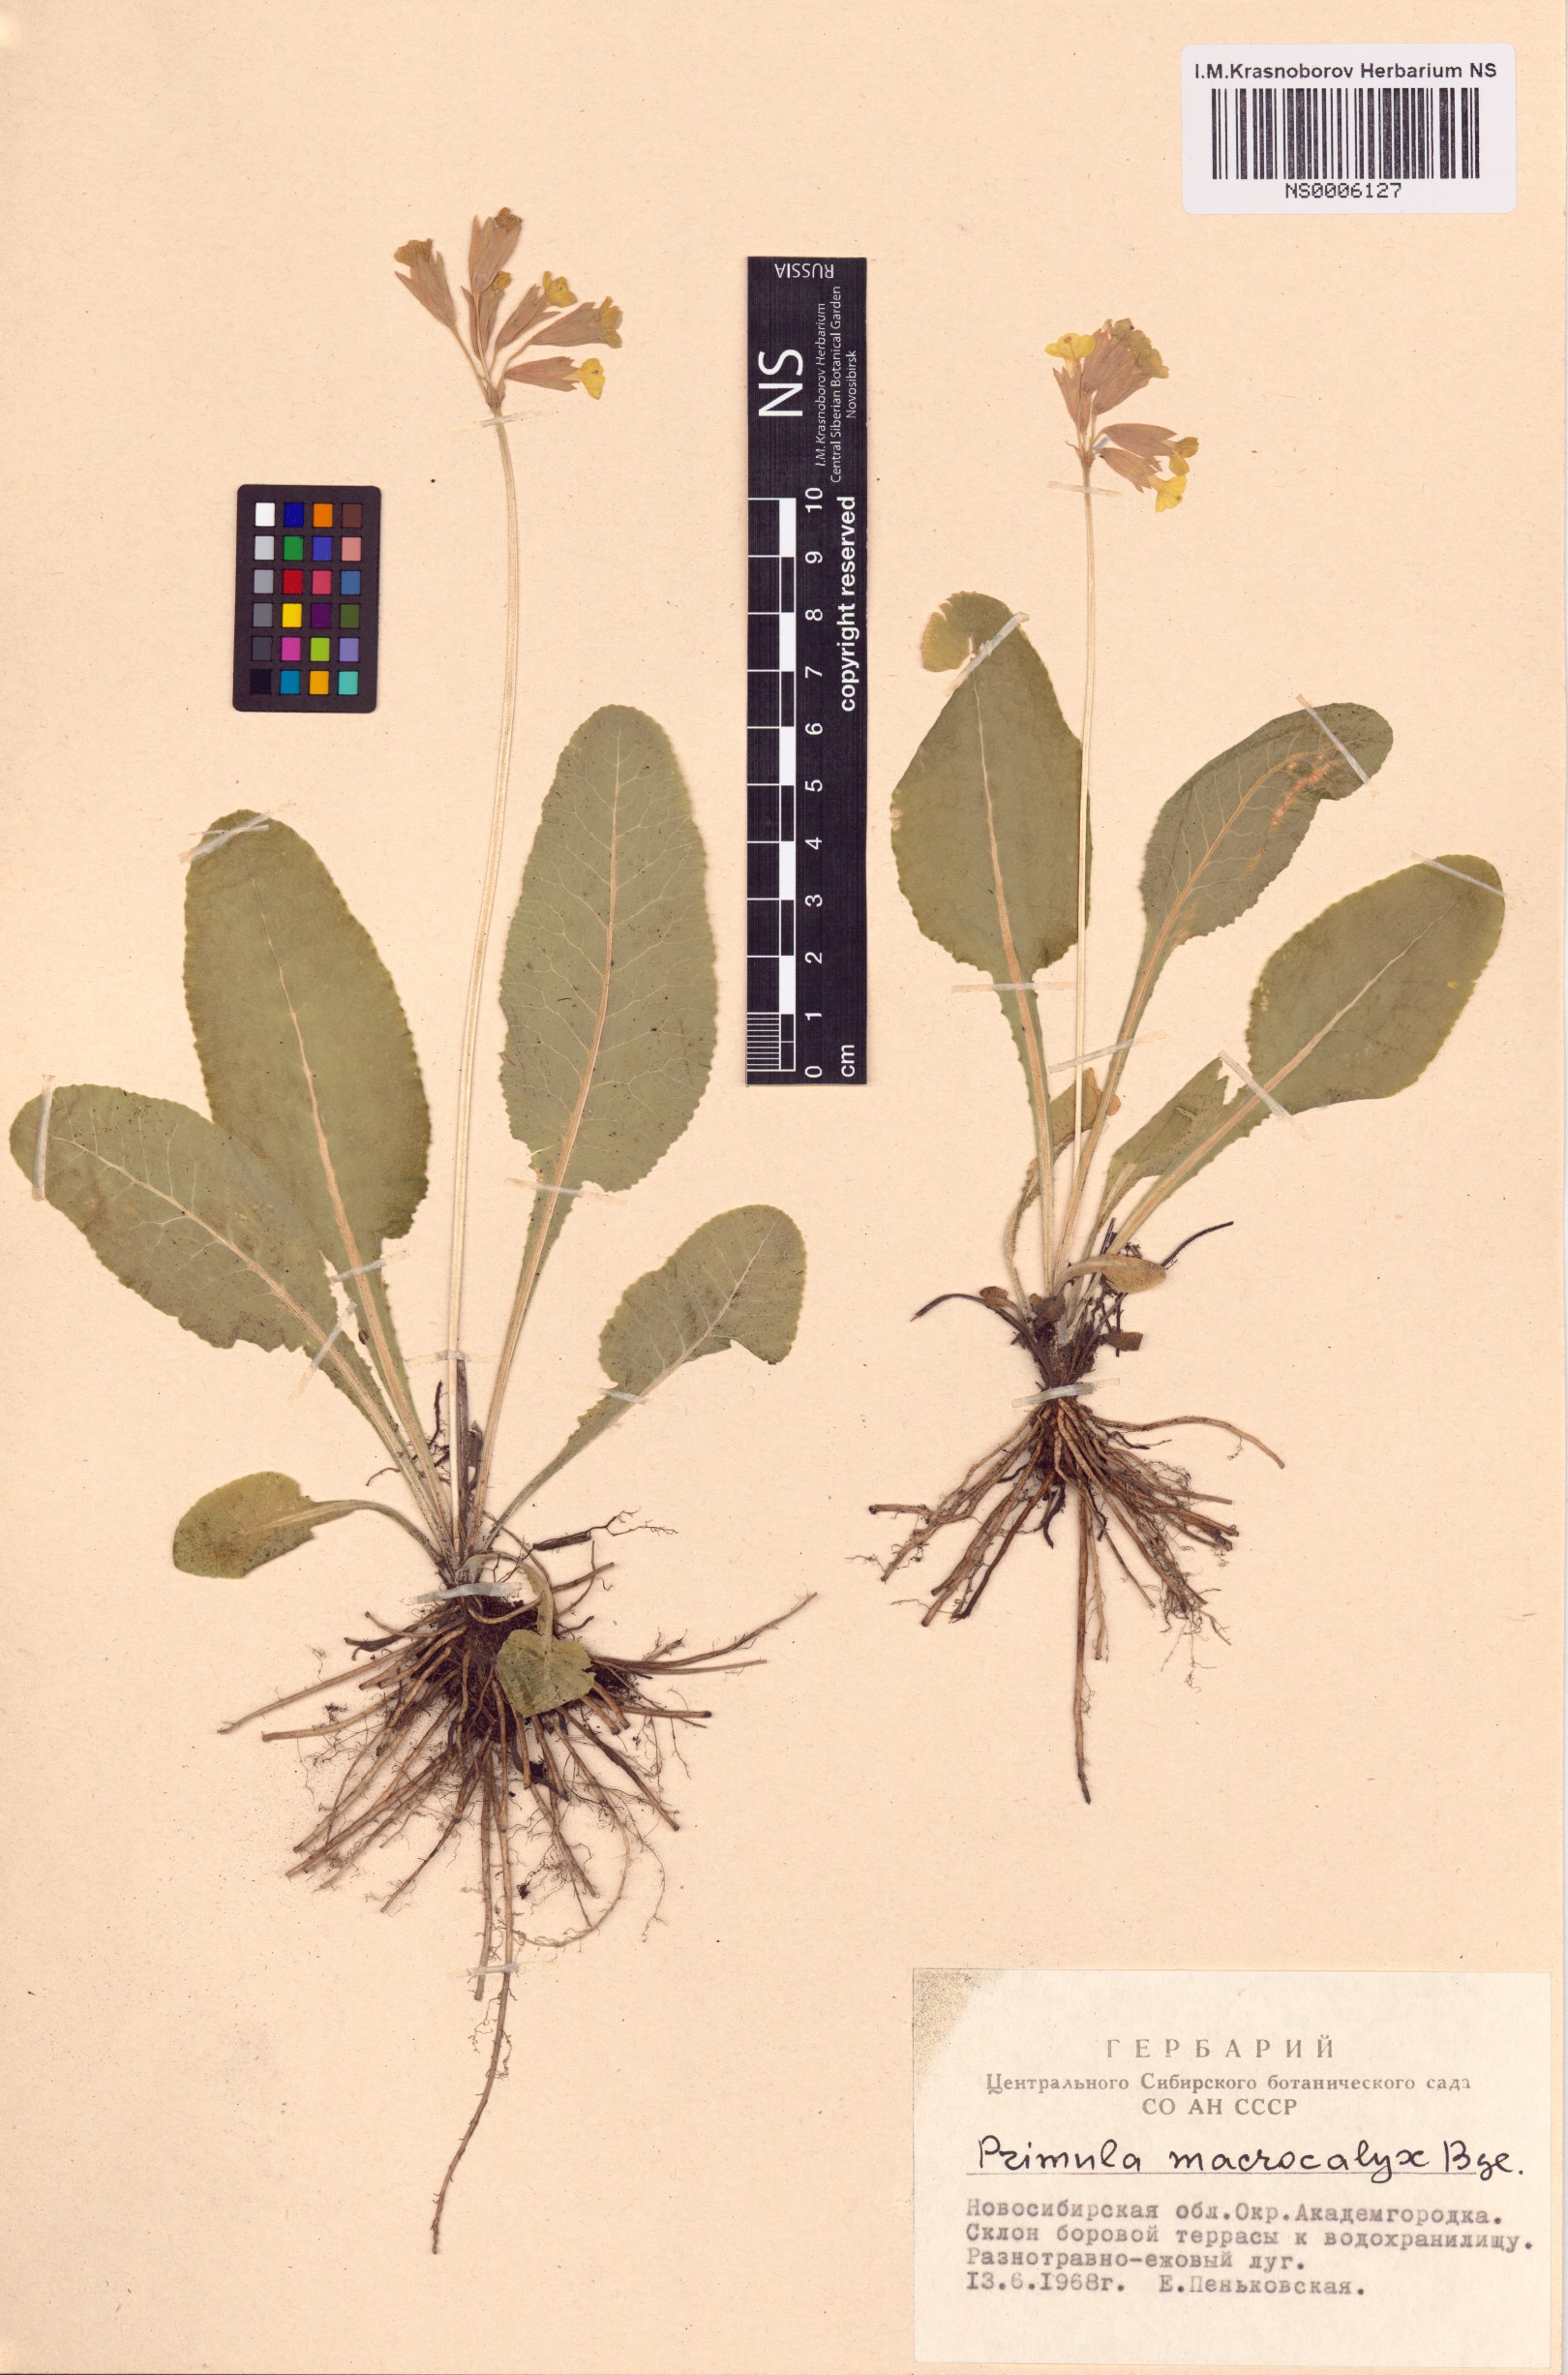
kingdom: Plantae
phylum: Tracheophyta
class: Magnoliopsida
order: Ericales
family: Primulaceae
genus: Primula
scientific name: Primula veris
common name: Cowslip
